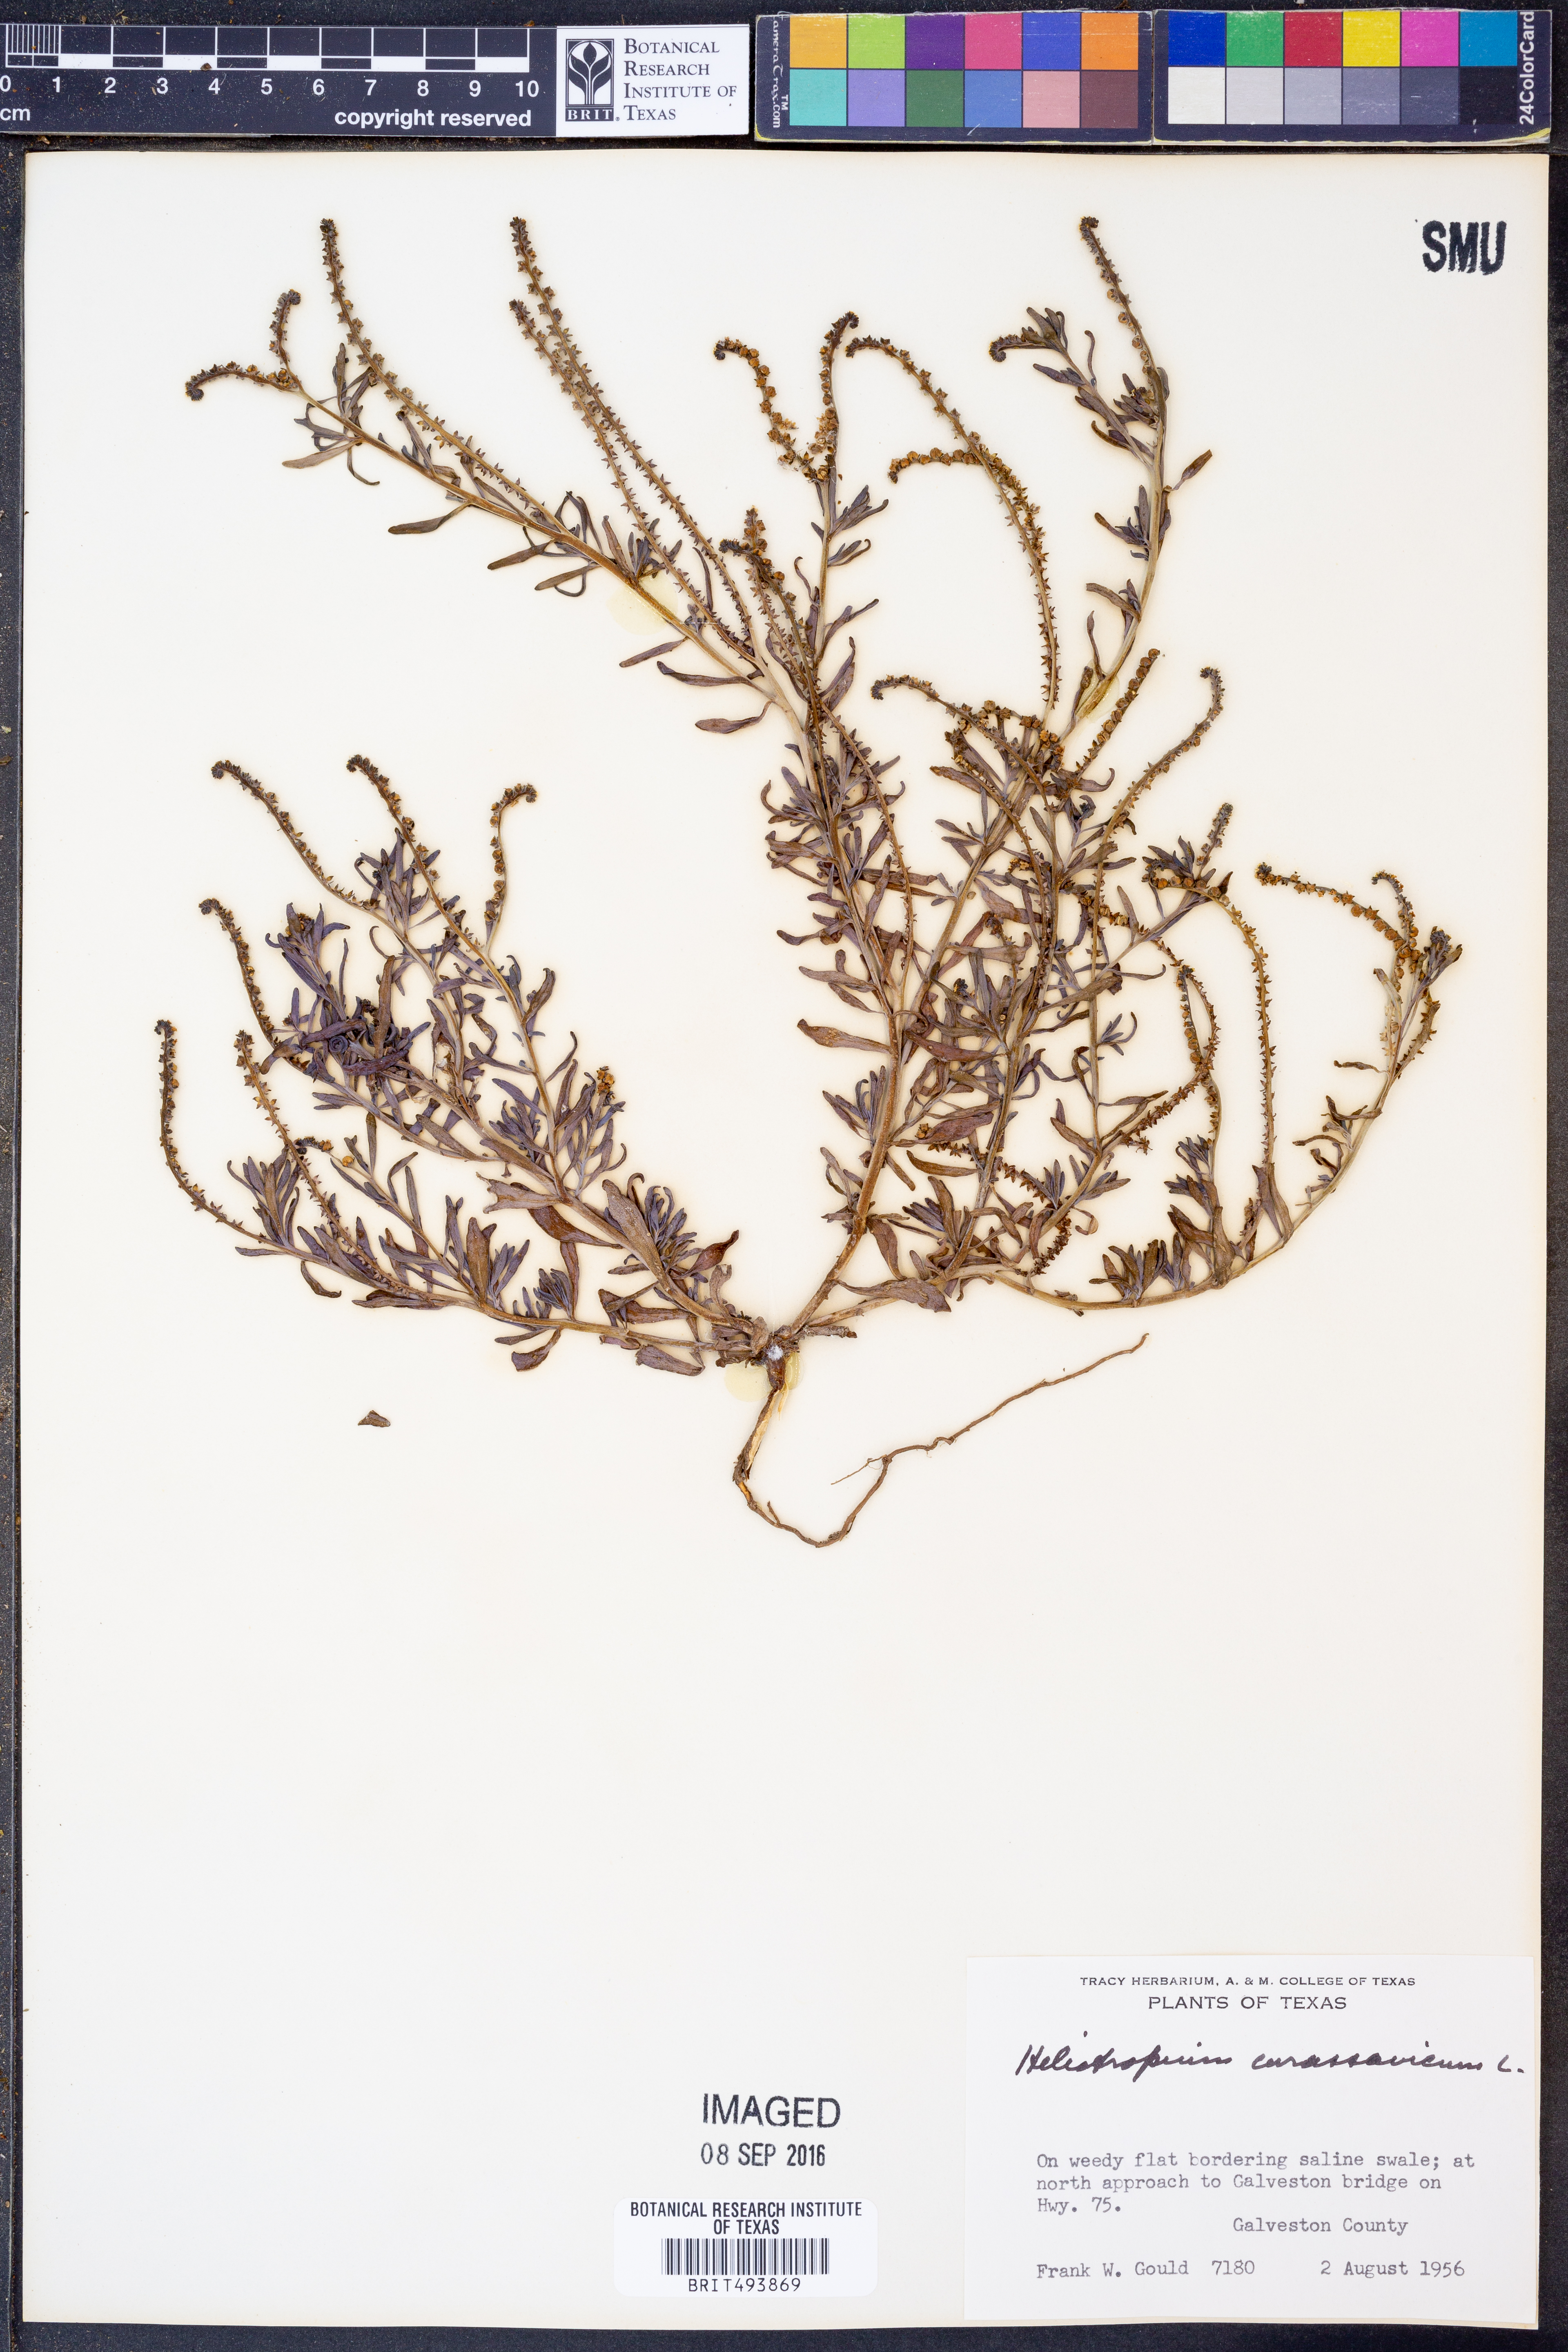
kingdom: Plantae
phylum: Tracheophyta
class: Magnoliopsida
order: Boraginales
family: Heliotropiaceae
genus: Heliotropium
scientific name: Heliotropium curassavicum
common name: Seaside heliotrope
